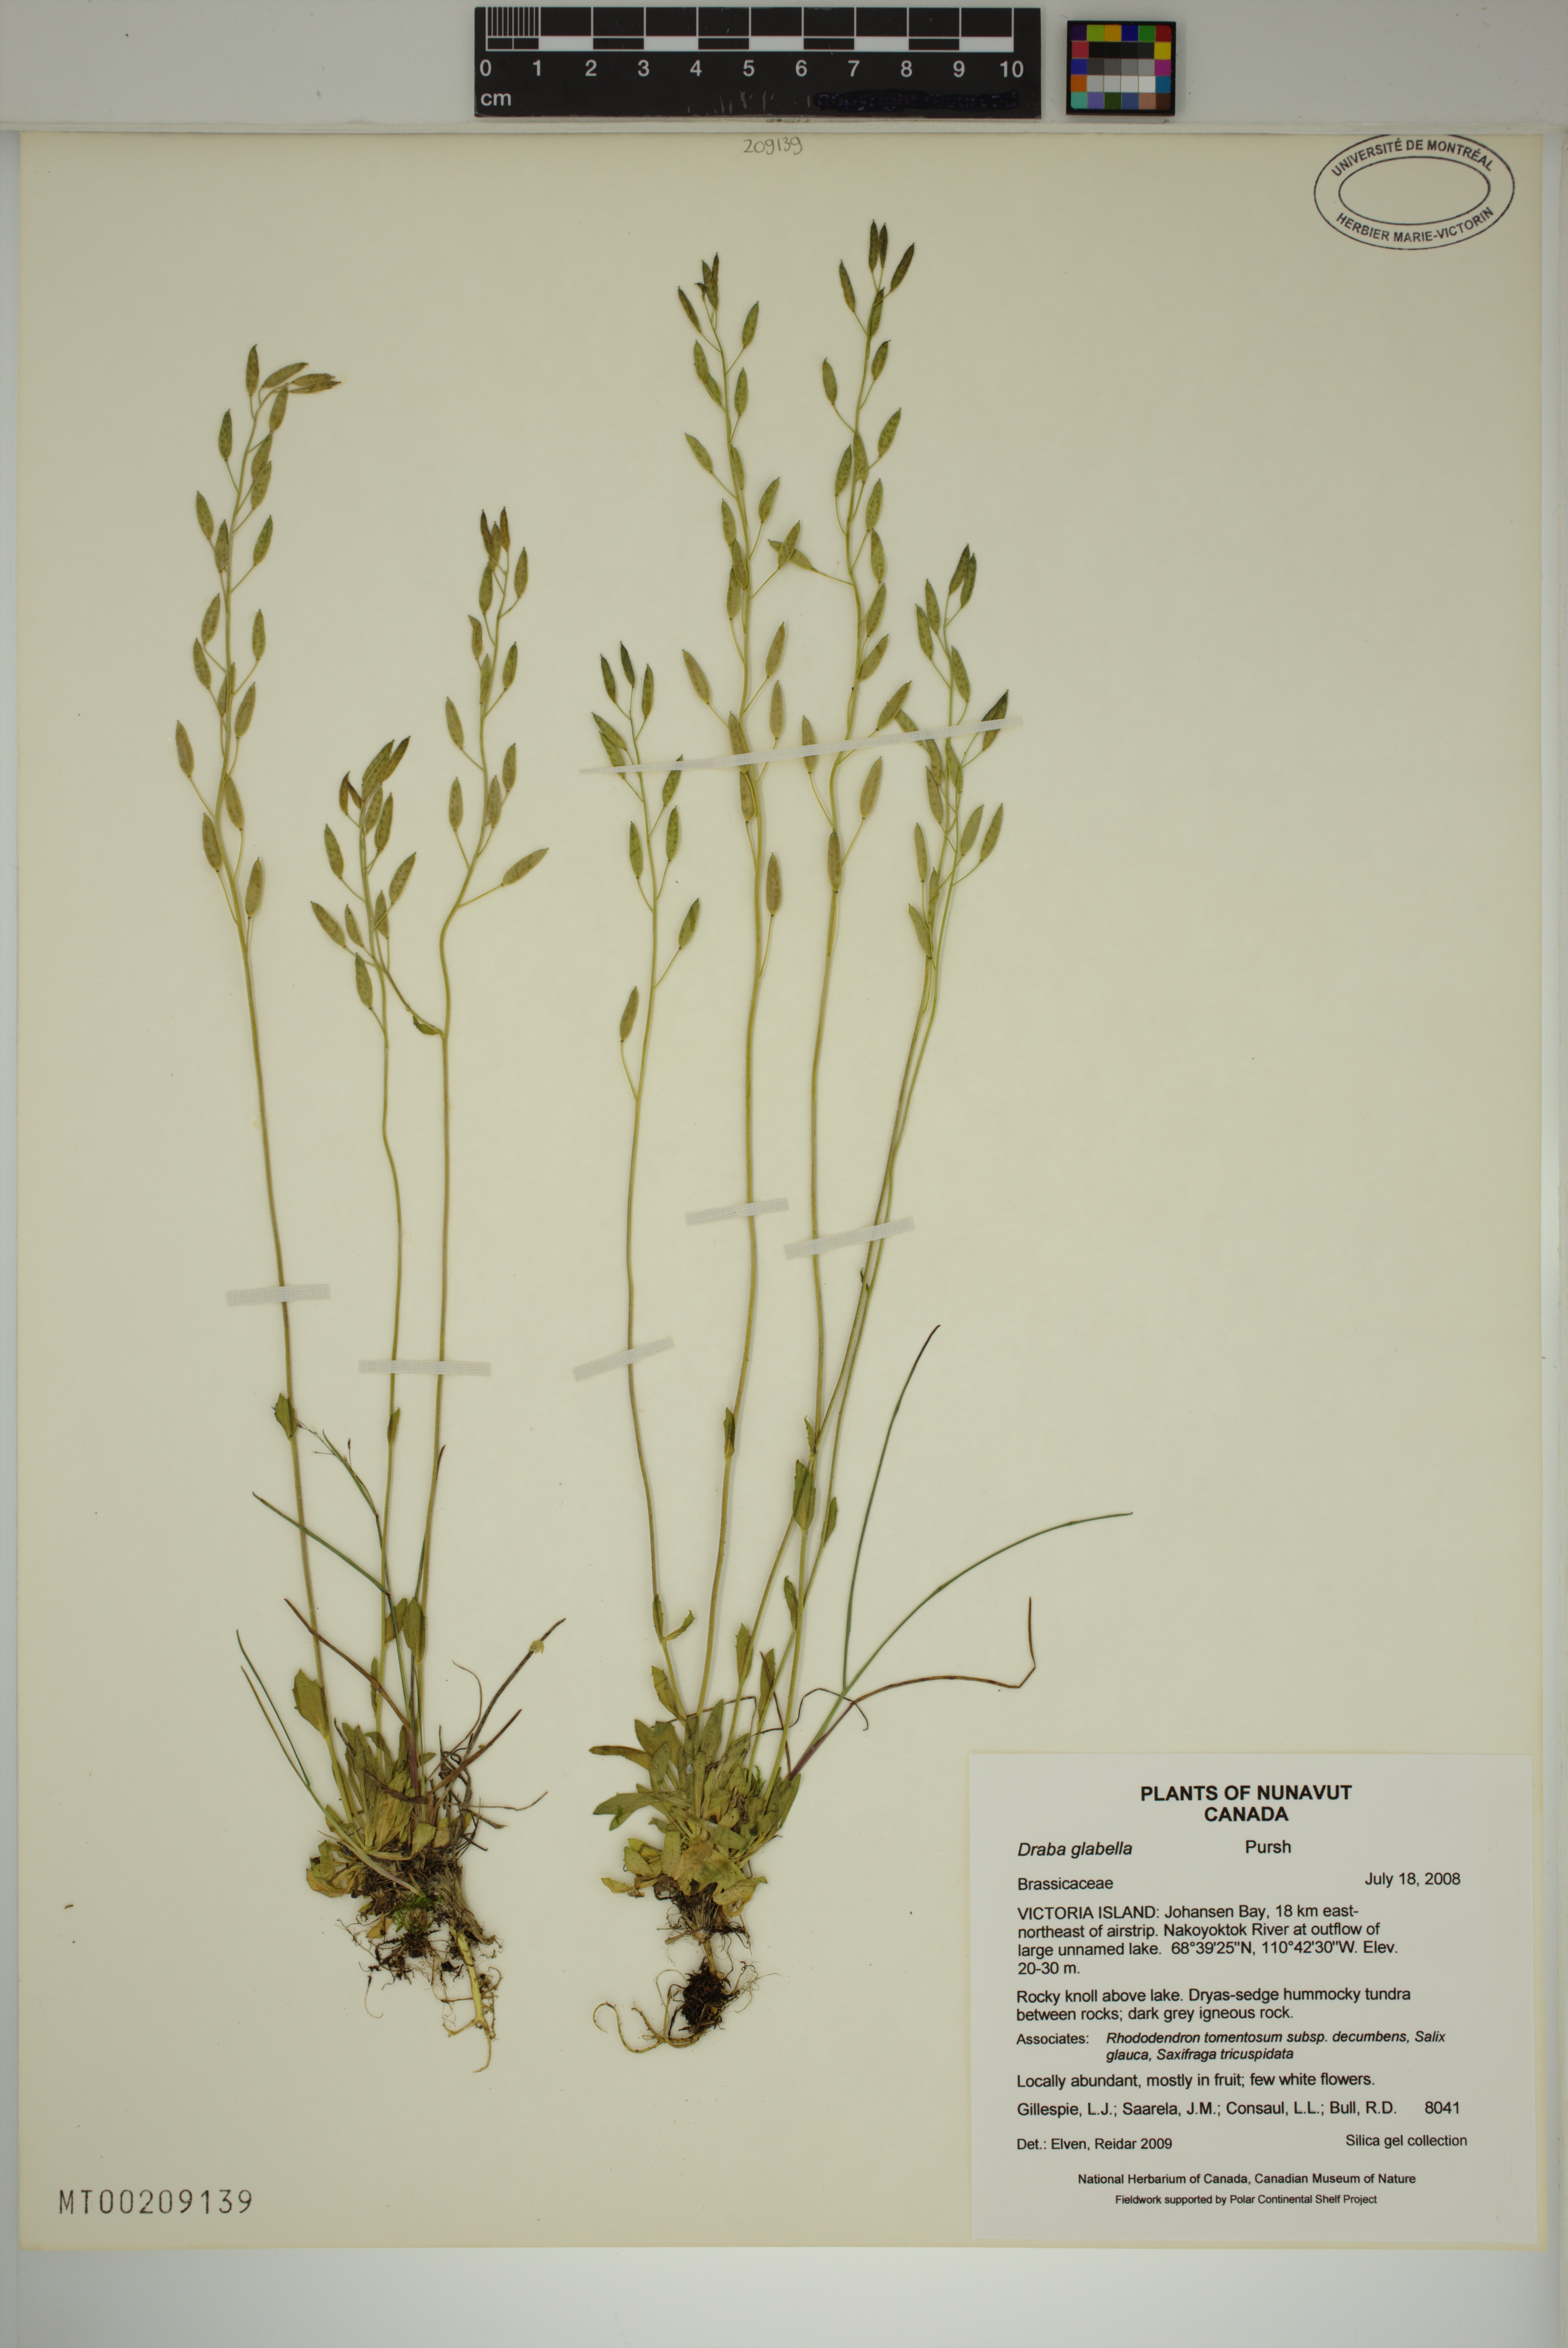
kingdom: Plantae
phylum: Tracheophyta
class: Magnoliopsida
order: Brassicales
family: Brassicaceae
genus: Draba
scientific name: Draba glabella
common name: Glaucous draba
